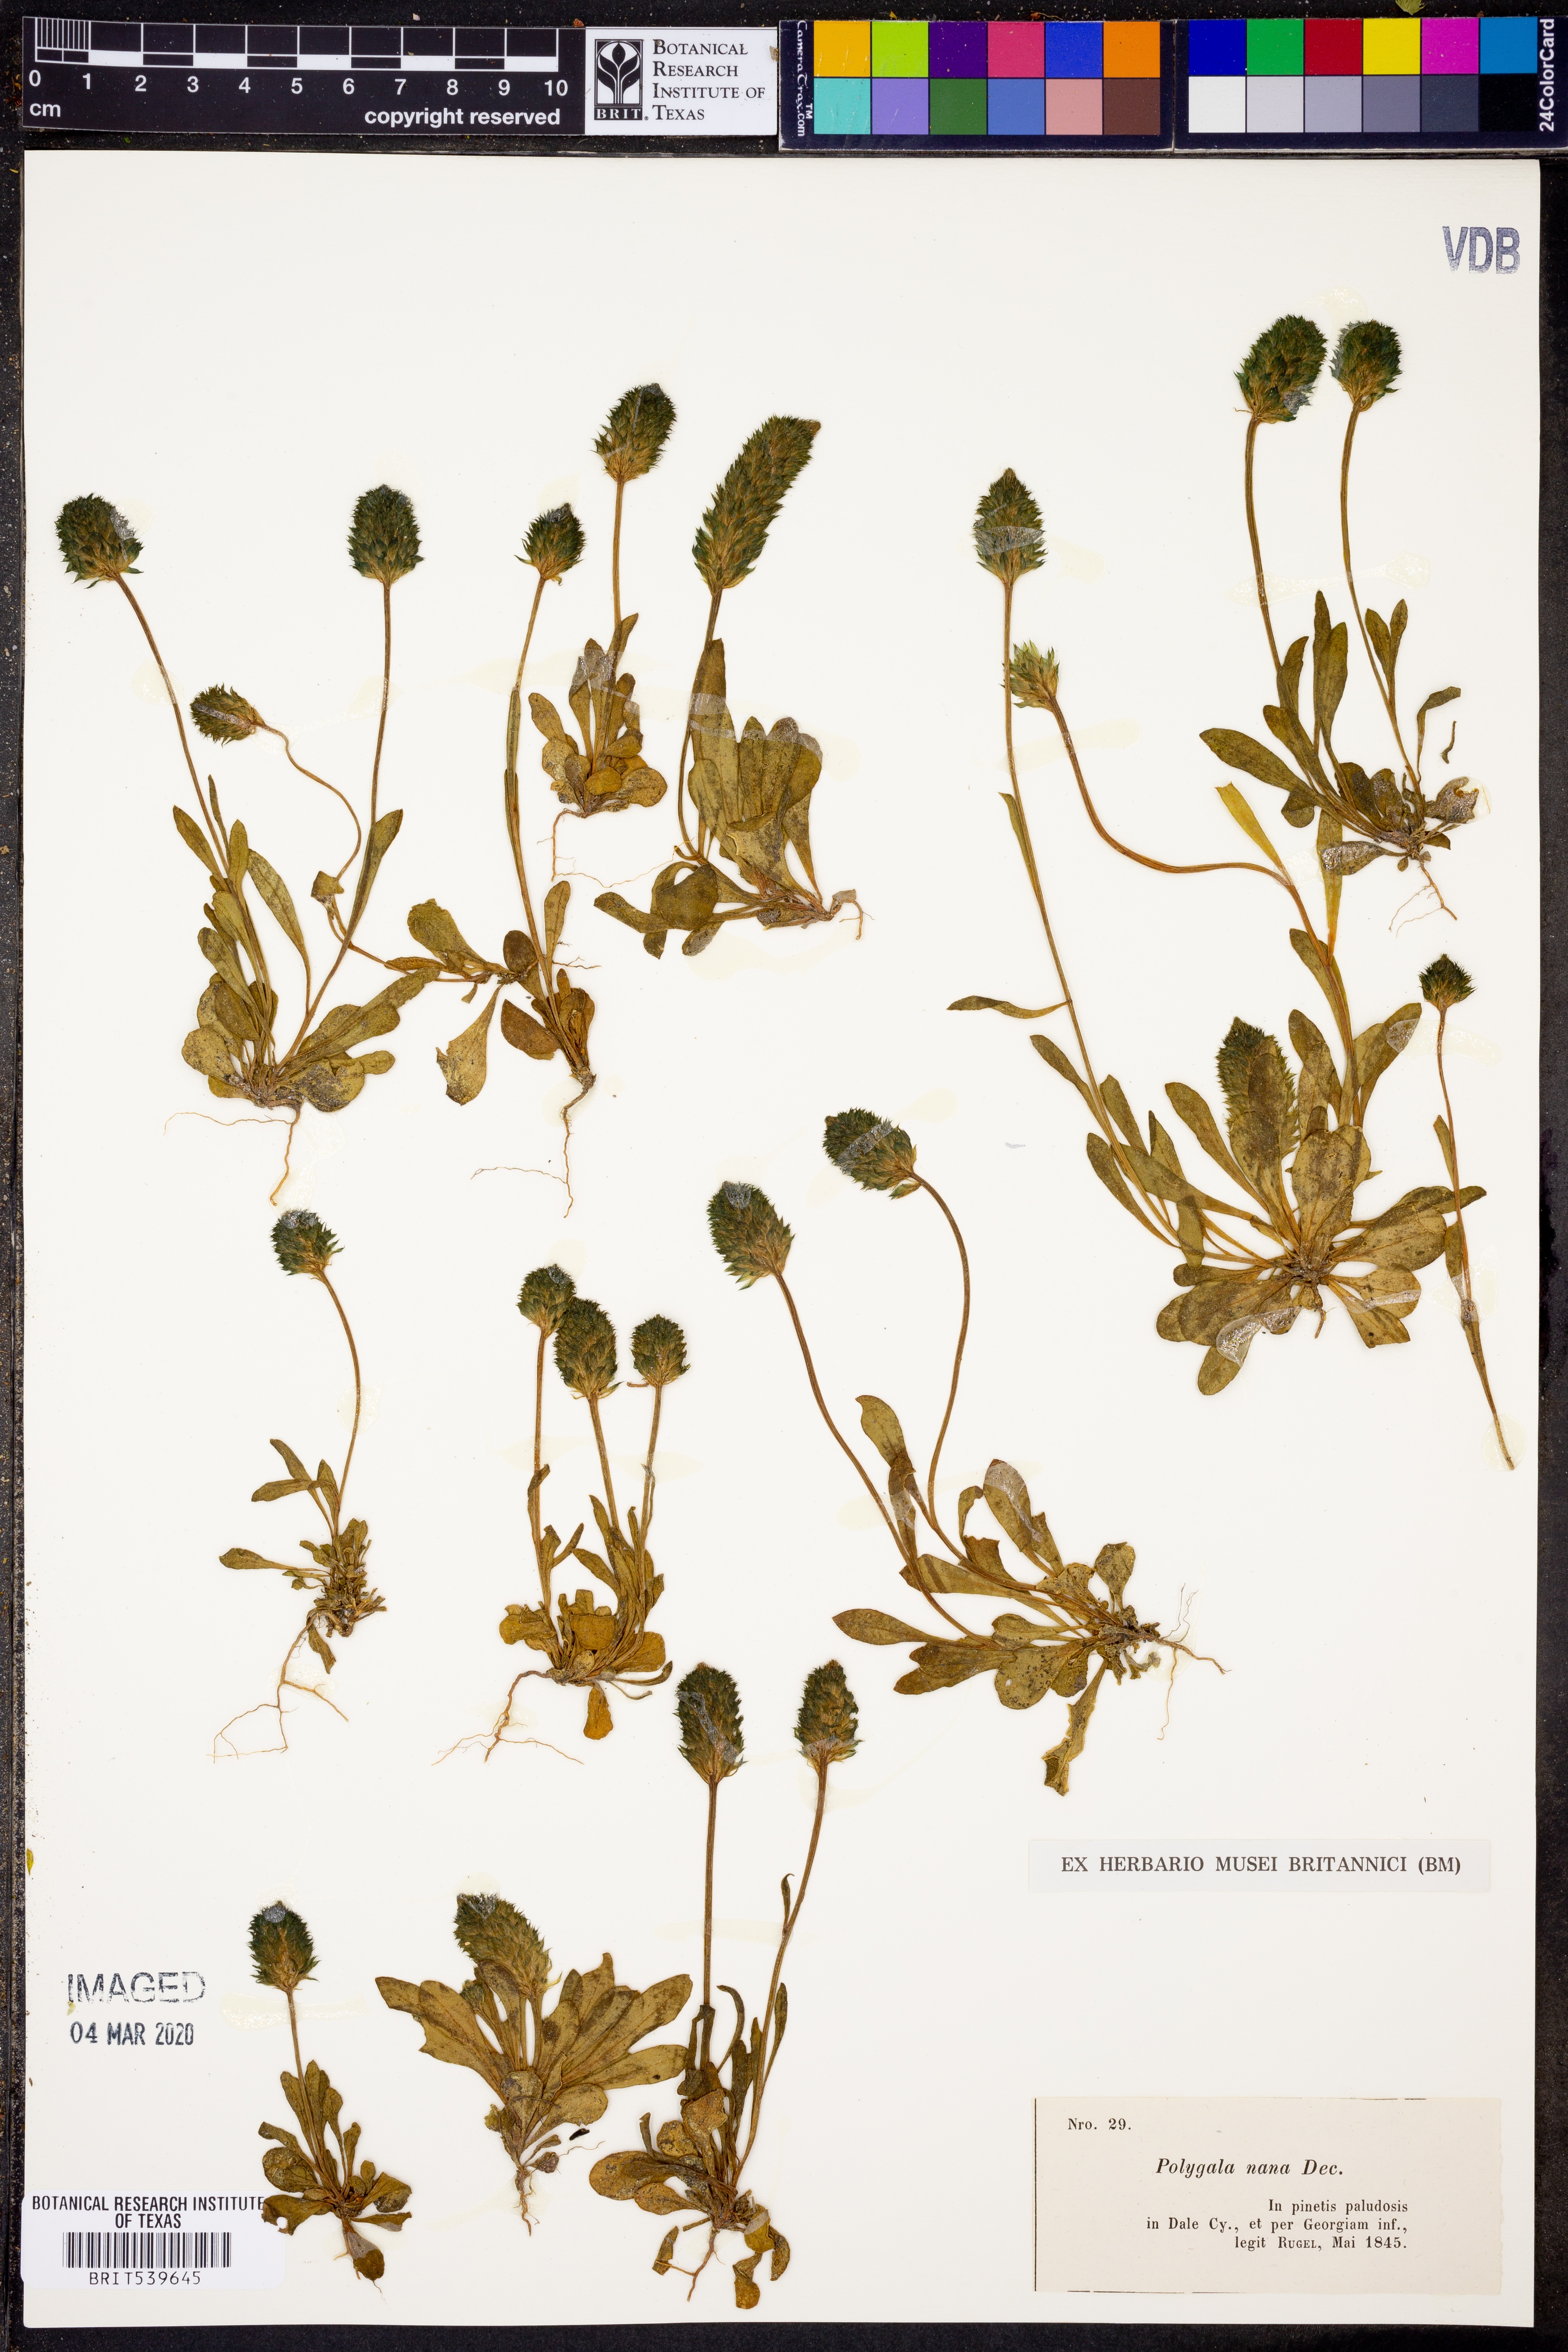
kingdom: Plantae
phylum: Tracheophyta
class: Magnoliopsida
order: Fabales
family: Polygalaceae
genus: Polygala
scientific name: Polygala nana
